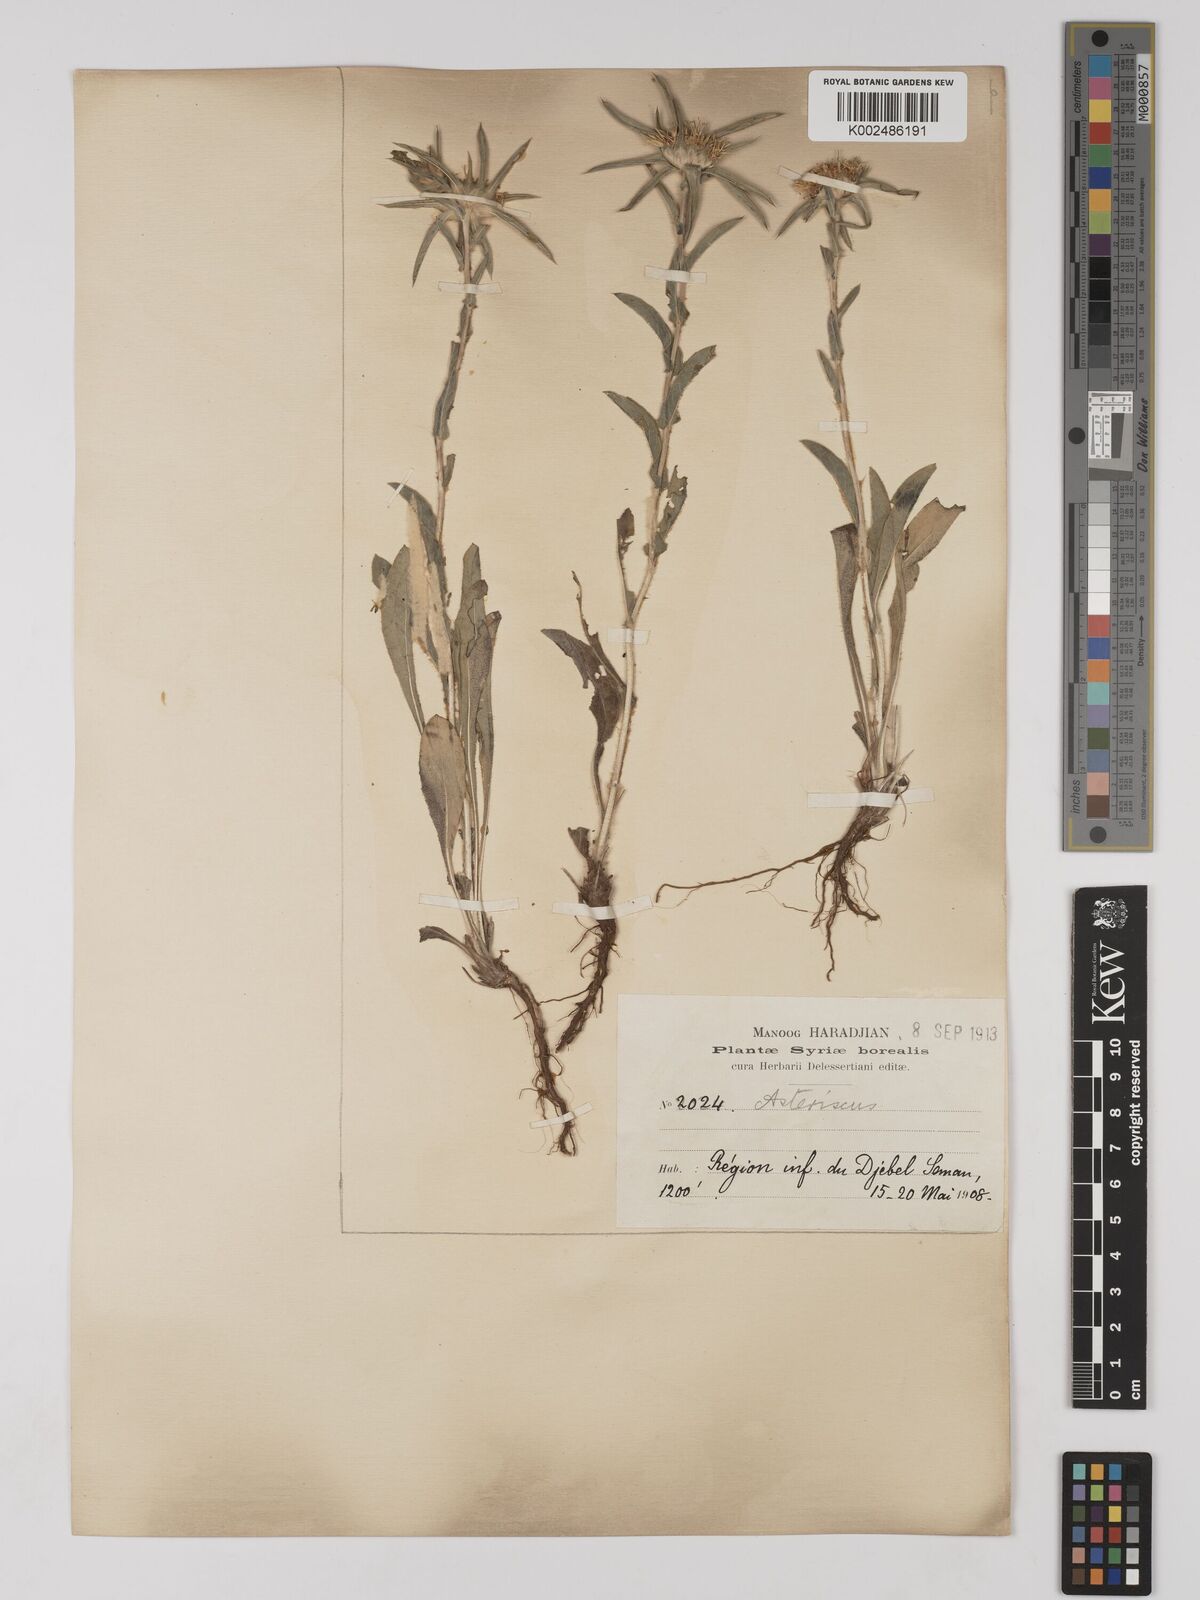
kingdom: Plantae
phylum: Tracheophyta
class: Magnoliopsida
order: Asterales
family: Asteraceae
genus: Pallenis
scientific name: Pallenis spinosa
